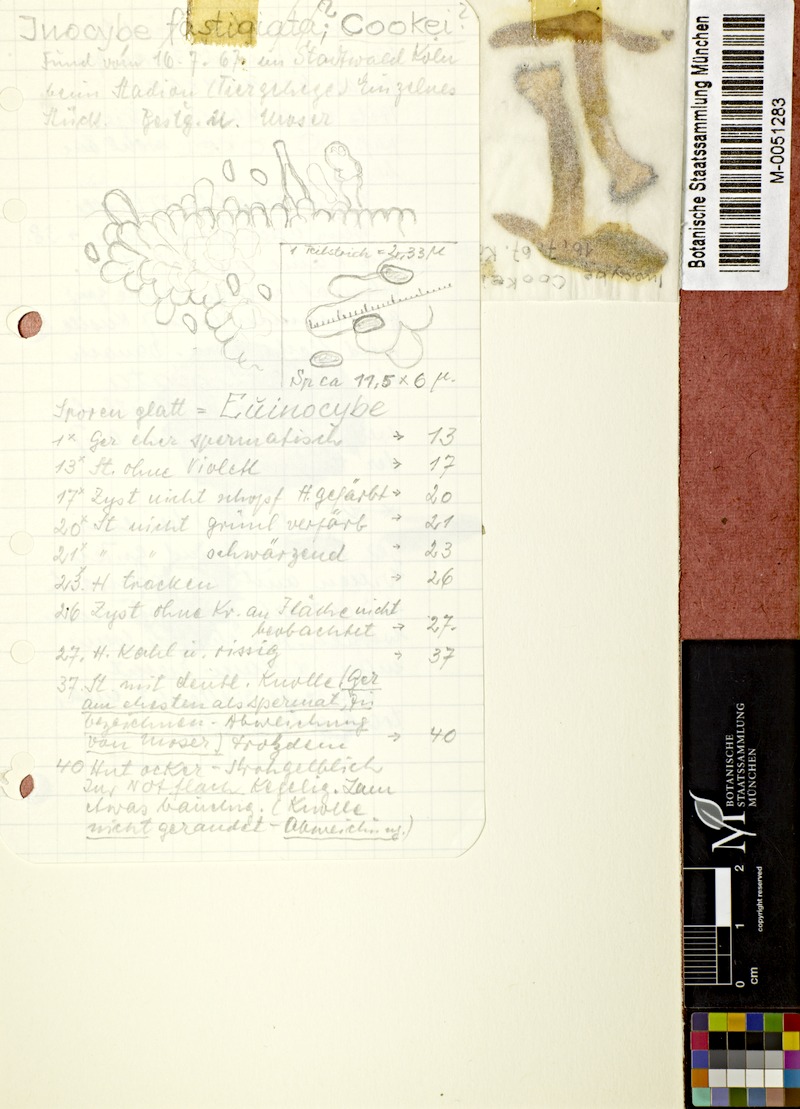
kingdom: Fungi
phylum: Basidiomycota
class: Agaricomycetes
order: Agaricales
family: Inocybaceae
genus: Inosperma
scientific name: Inosperma maculatum
